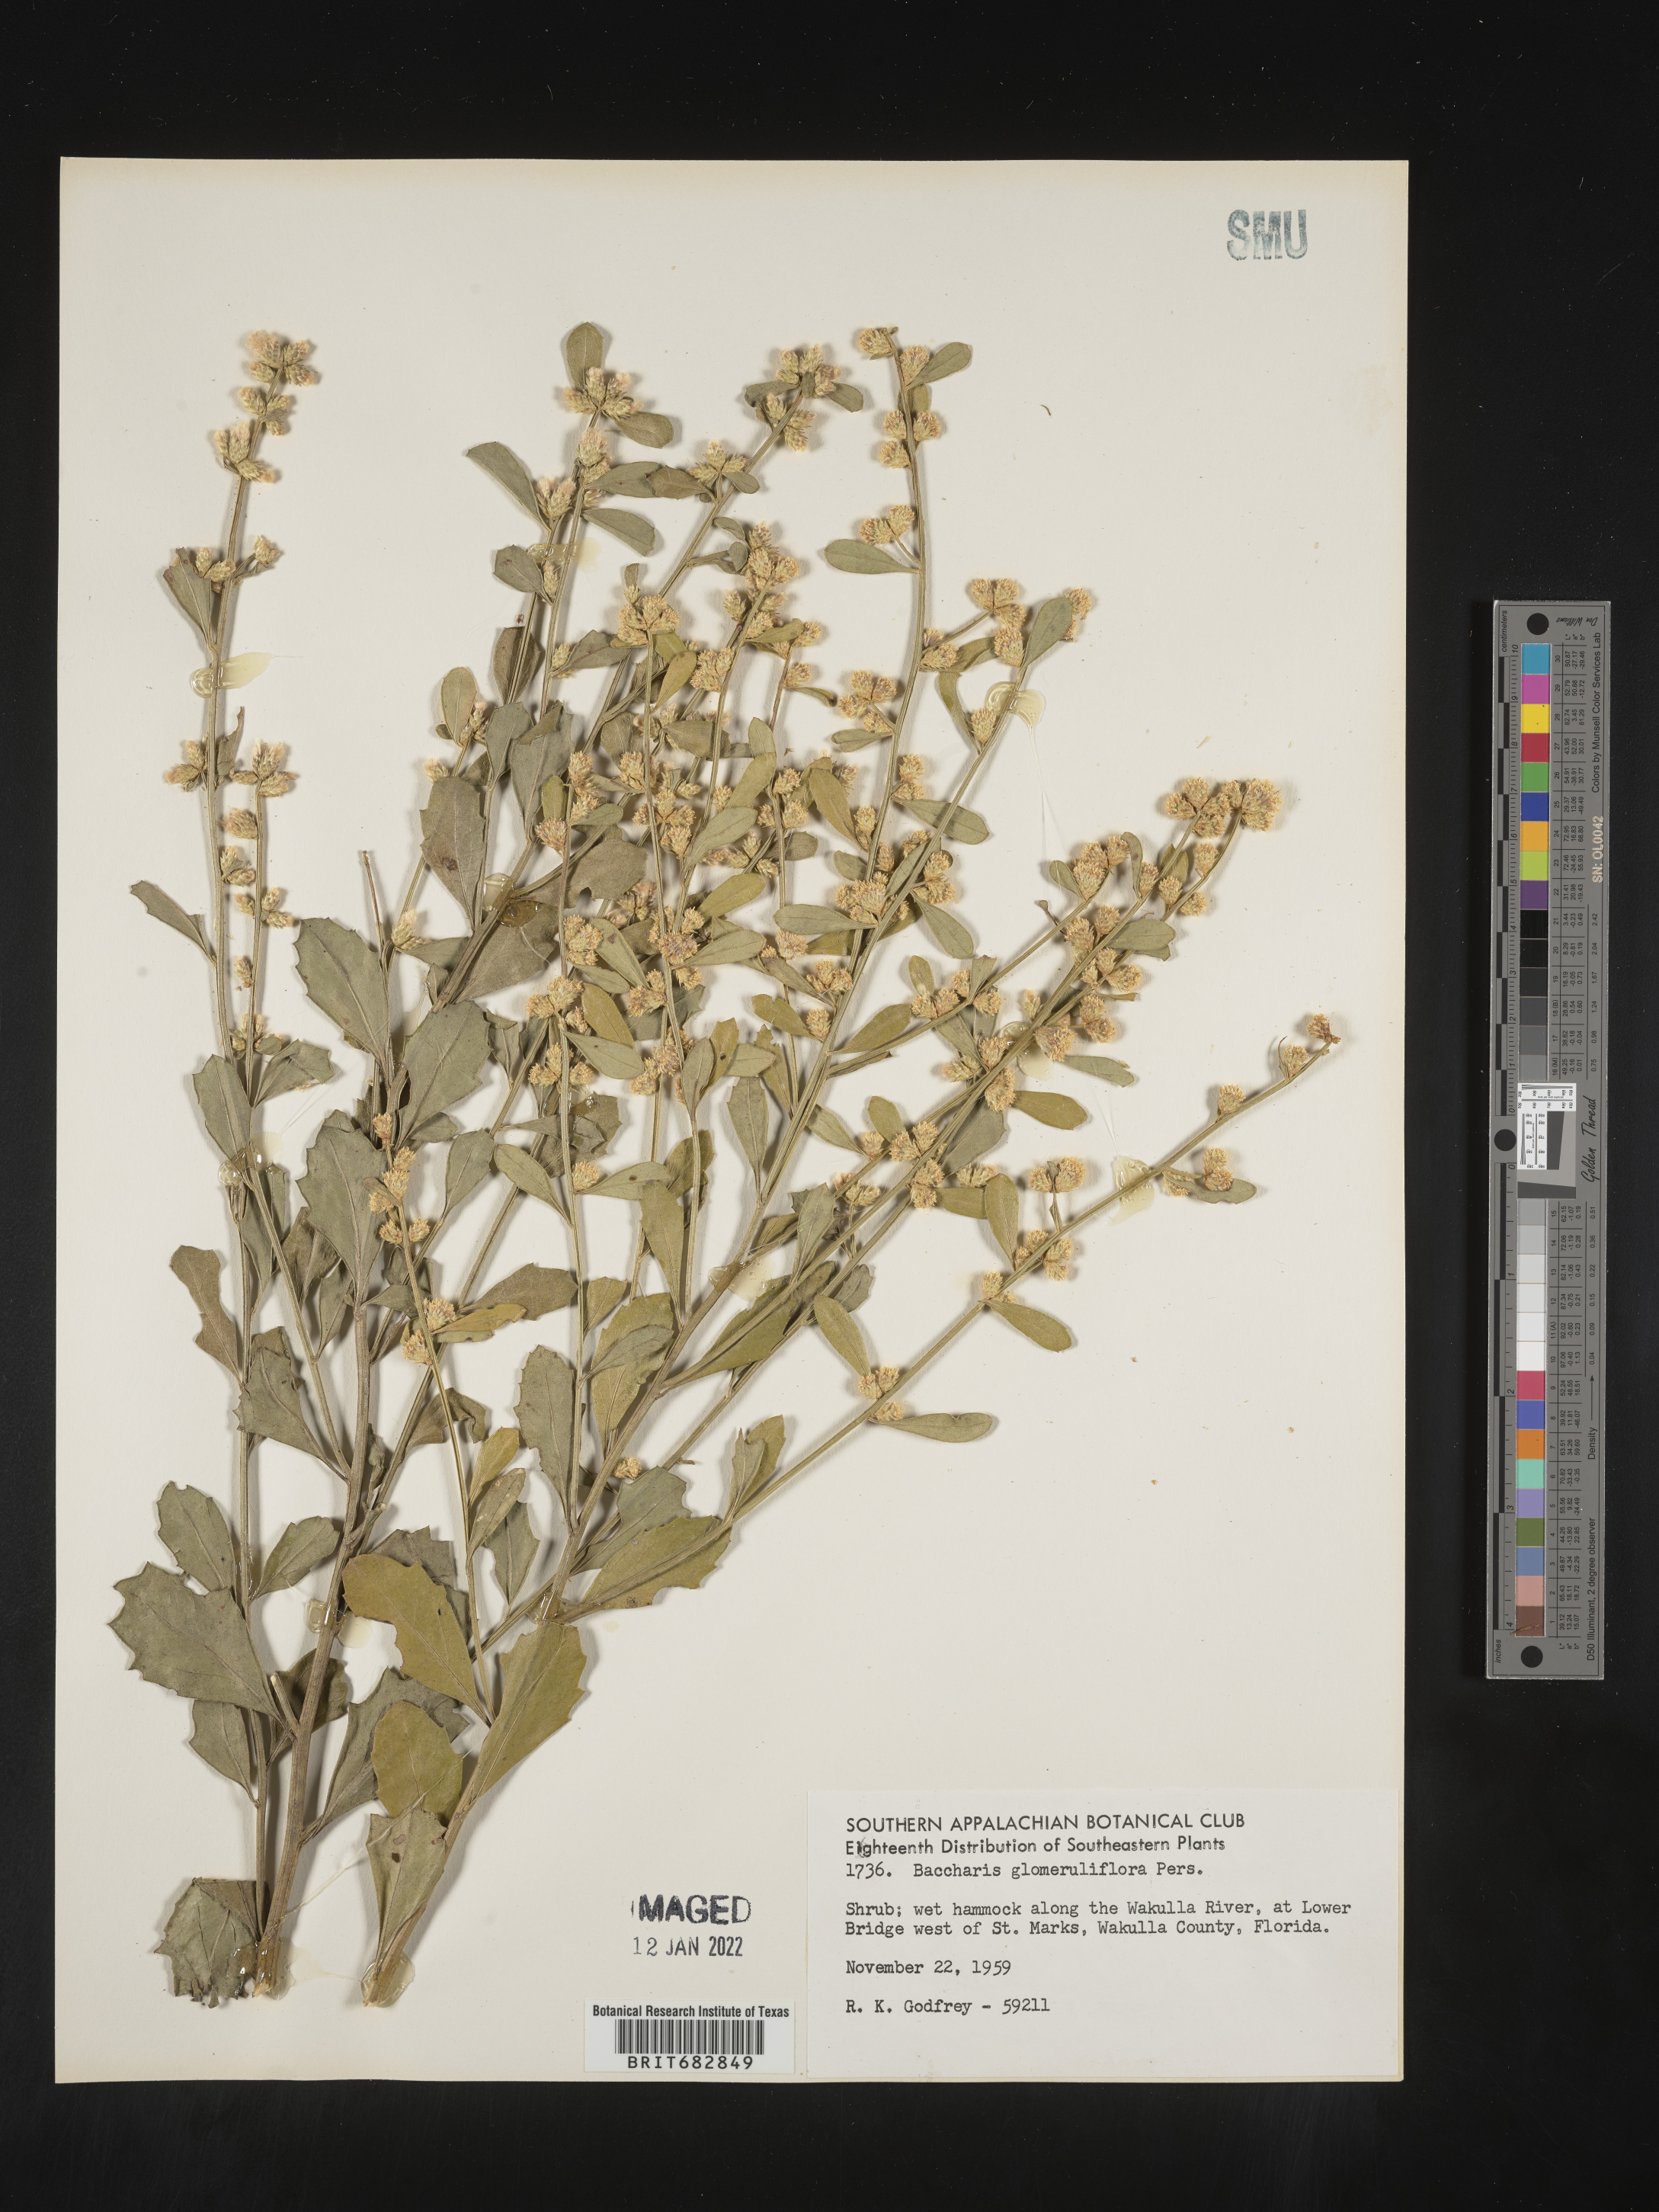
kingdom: Plantae
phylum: Tracheophyta
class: Magnoliopsida
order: Asterales
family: Asteraceae
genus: Baccharis
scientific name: Baccharis glomeruliflora
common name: Silverling groundsel bush
